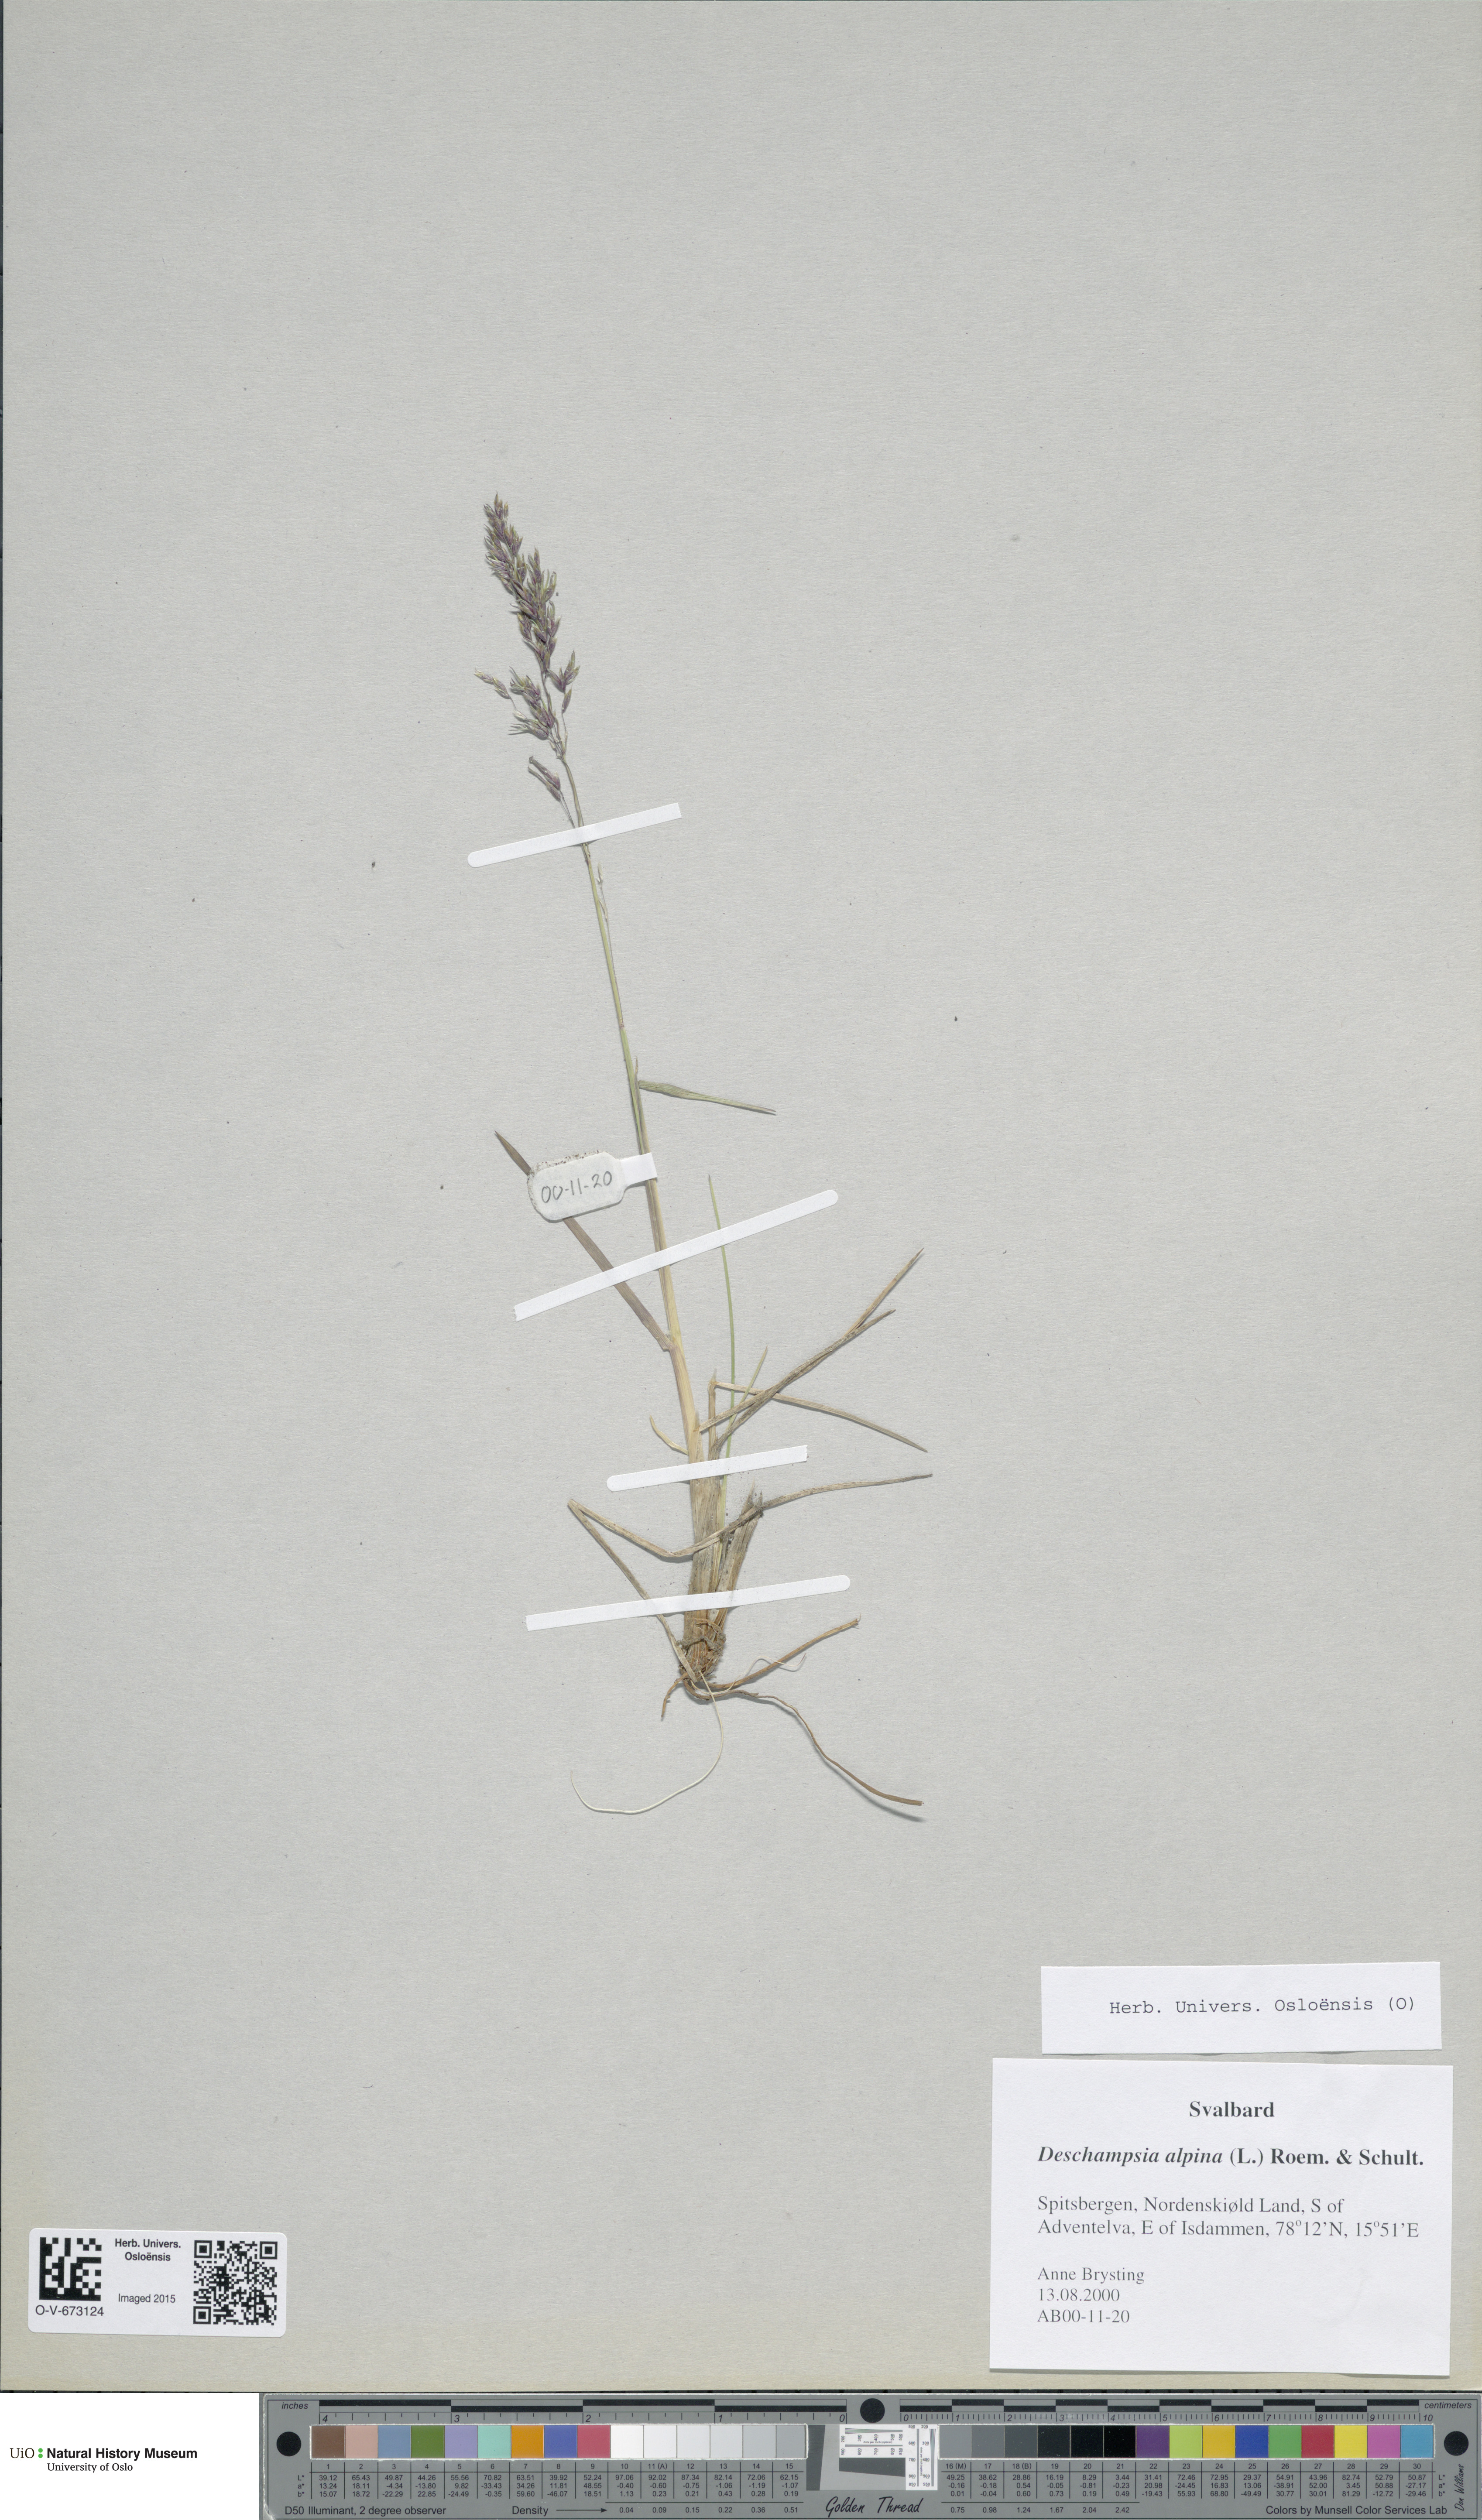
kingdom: Plantae
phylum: Tracheophyta
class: Liliopsida
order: Poales
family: Poaceae
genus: Deschampsia
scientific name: Deschampsia cespitosa
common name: Tufted hair-grass
